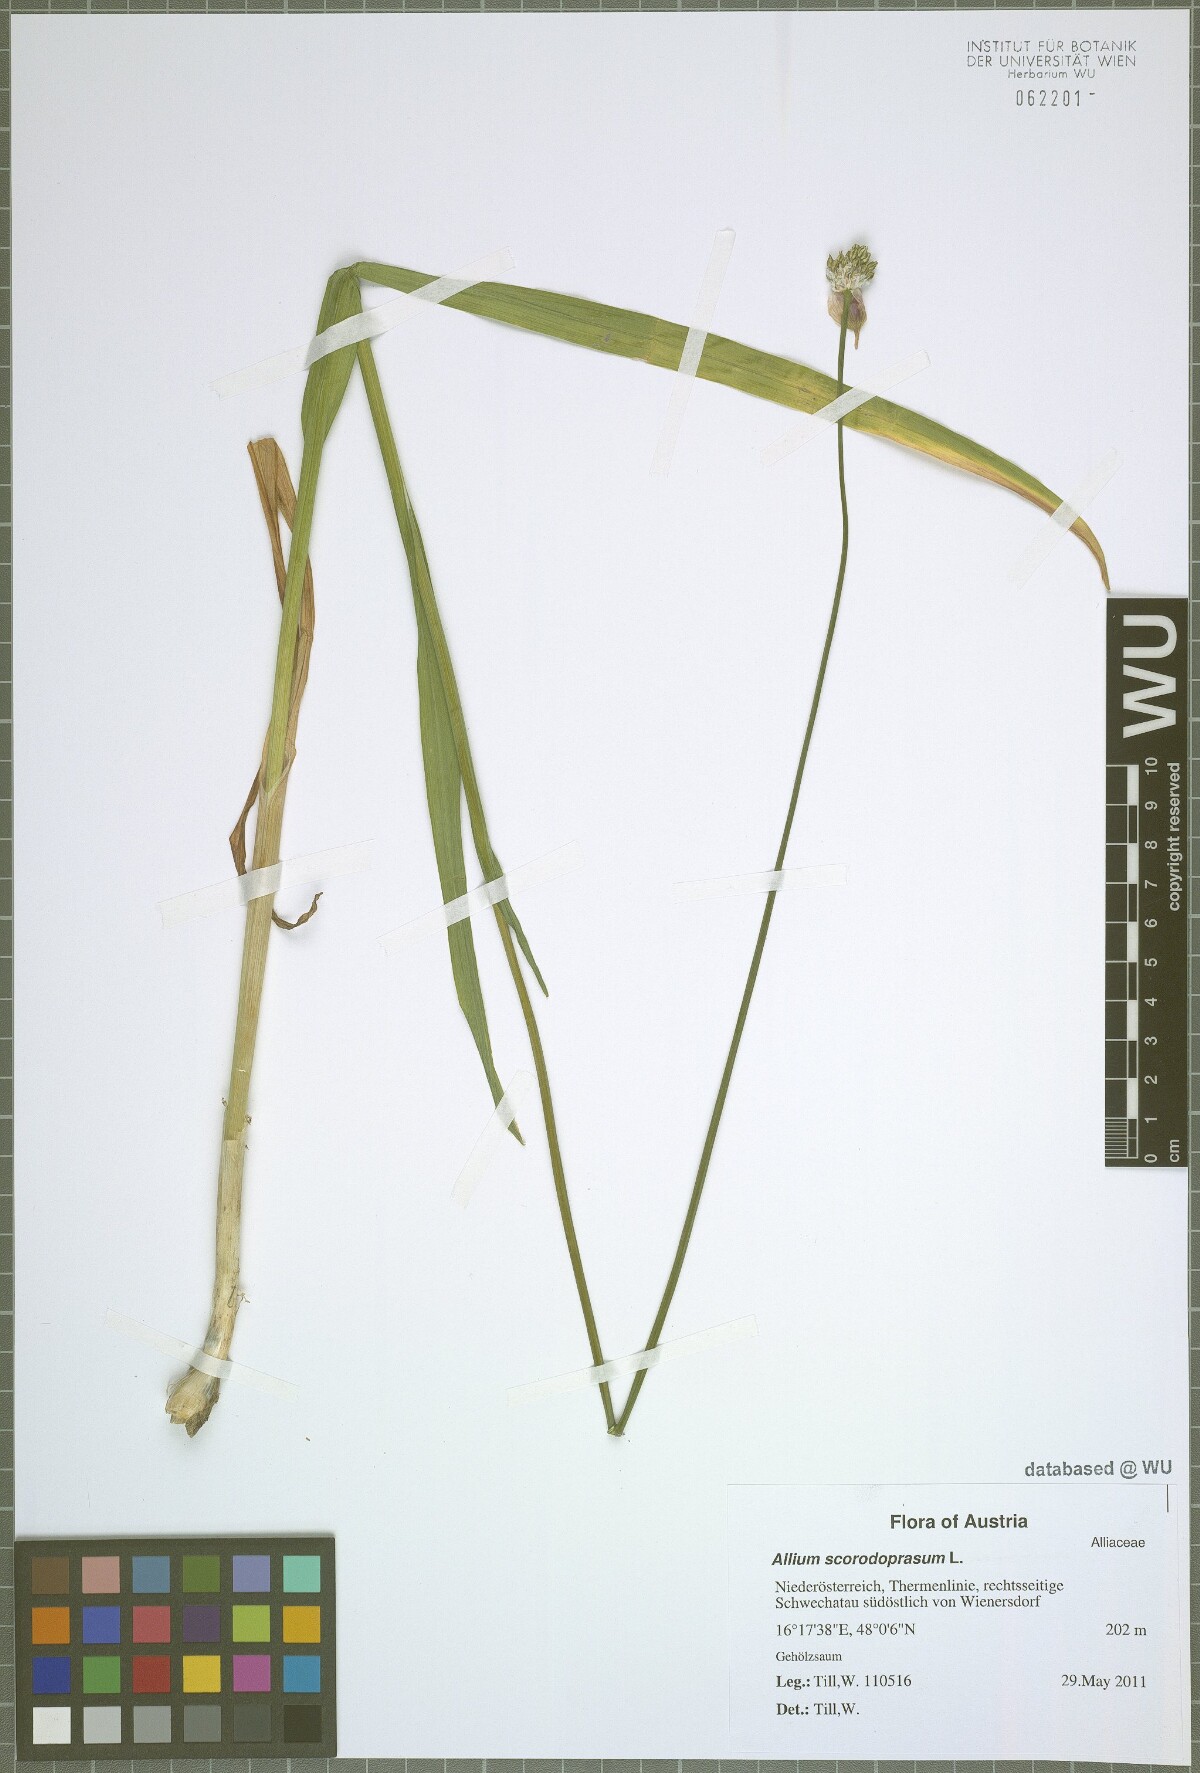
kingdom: Plantae
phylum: Tracheophyta
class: Liliopsida
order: Asparagales
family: Amaryllidaceae
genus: Allium
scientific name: Allium scorodoprasum
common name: Sand leek
